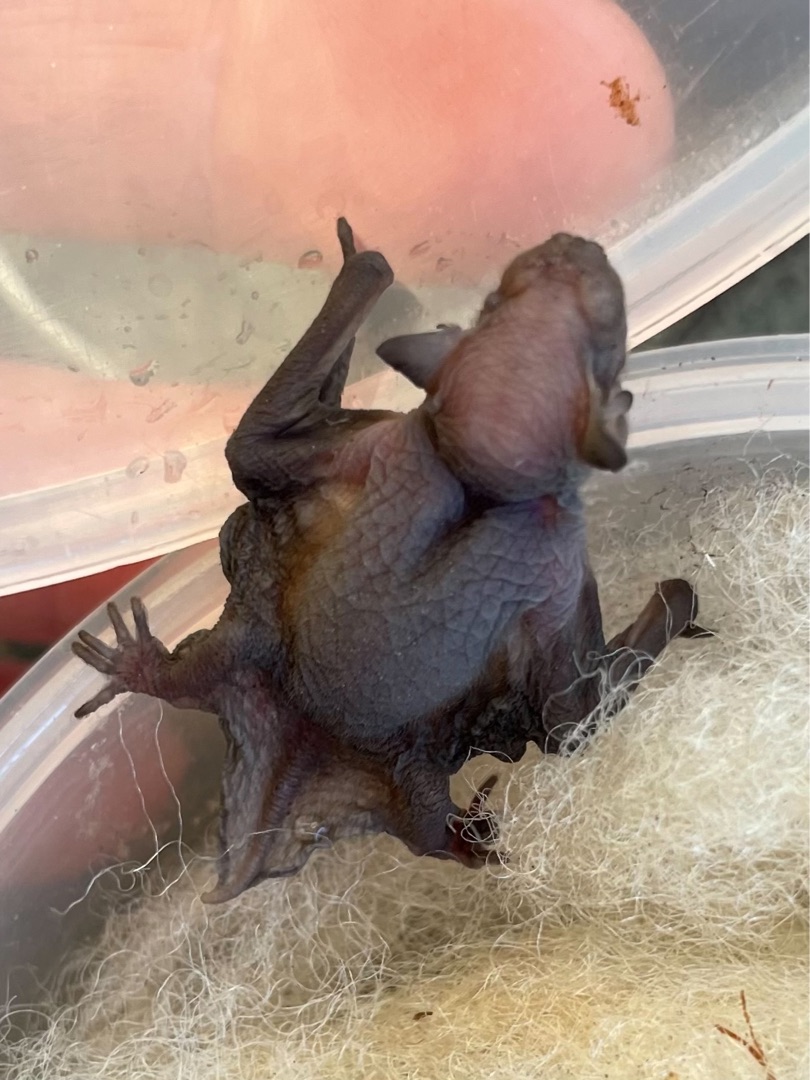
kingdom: Animalia
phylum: Chordata
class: Mammalia
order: Chiroptera
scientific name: Chiroptera
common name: Flagermus
